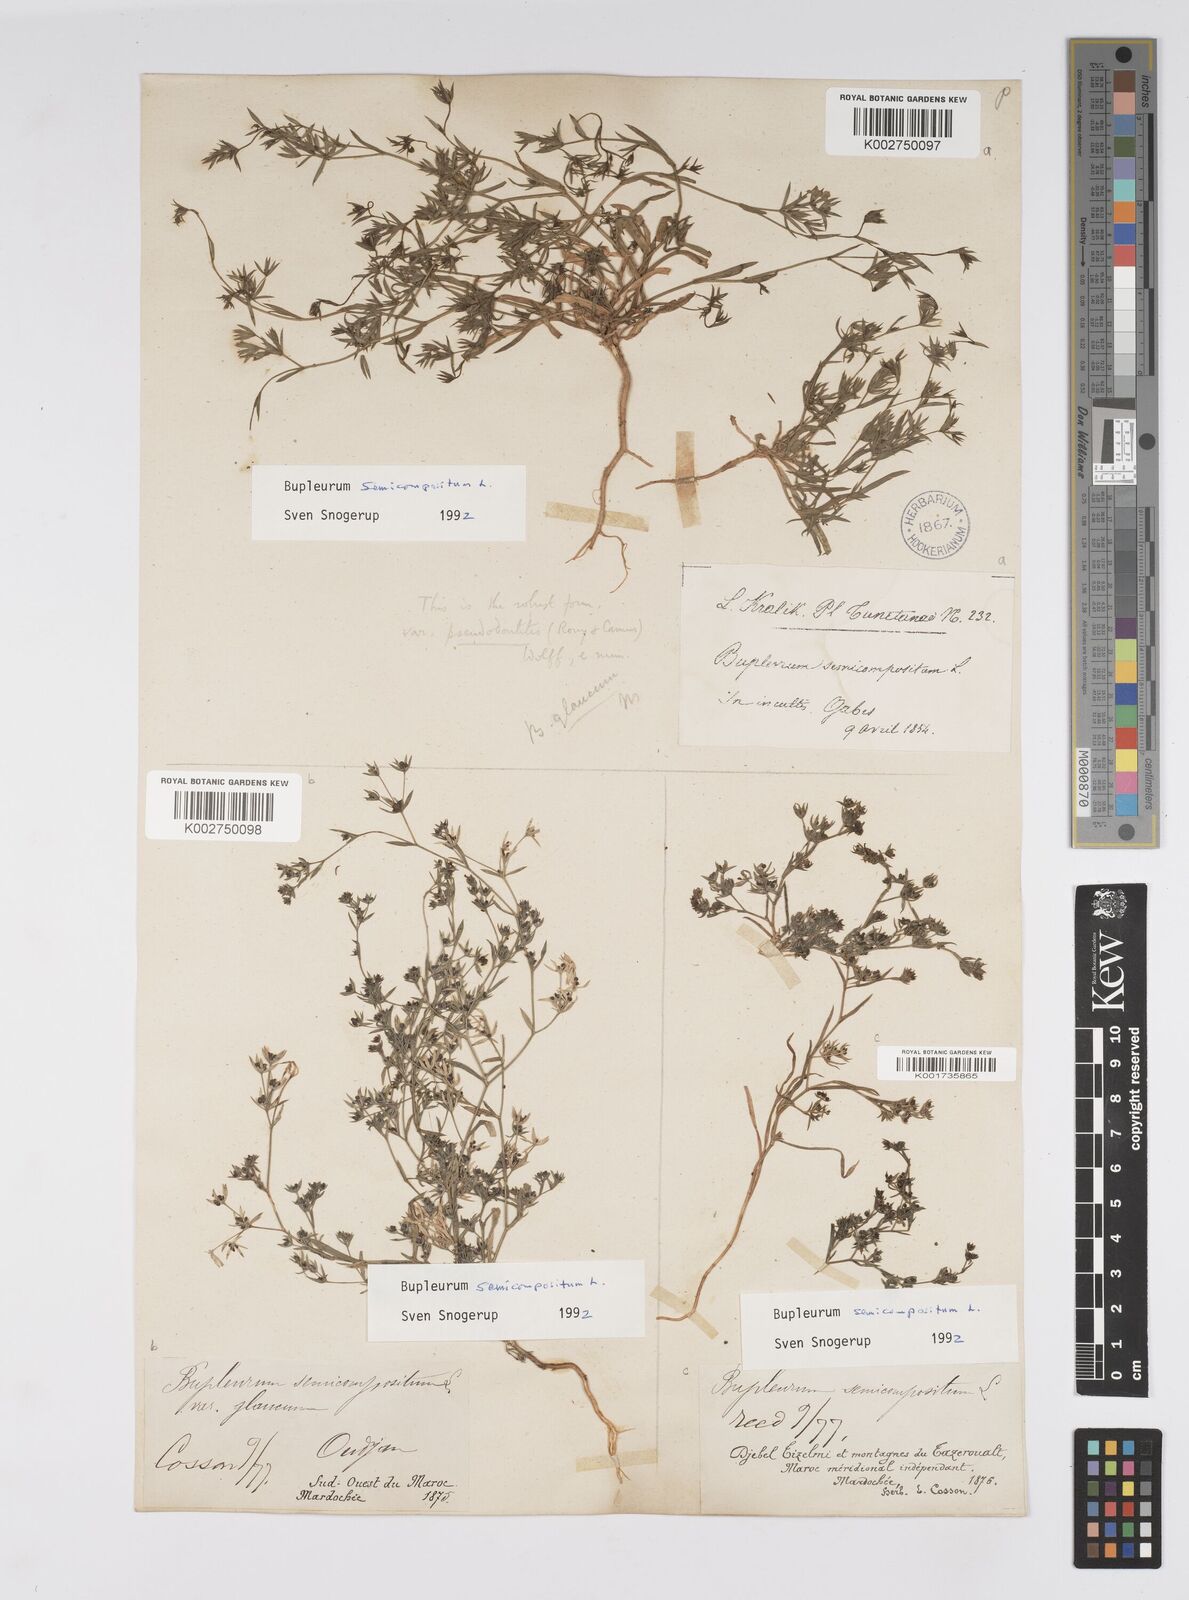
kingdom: Plantae
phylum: Tracheophyta
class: Magnoliopsida
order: Apiales
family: Apiaceae
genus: Bupleurum
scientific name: Bupleurum semicompositum
